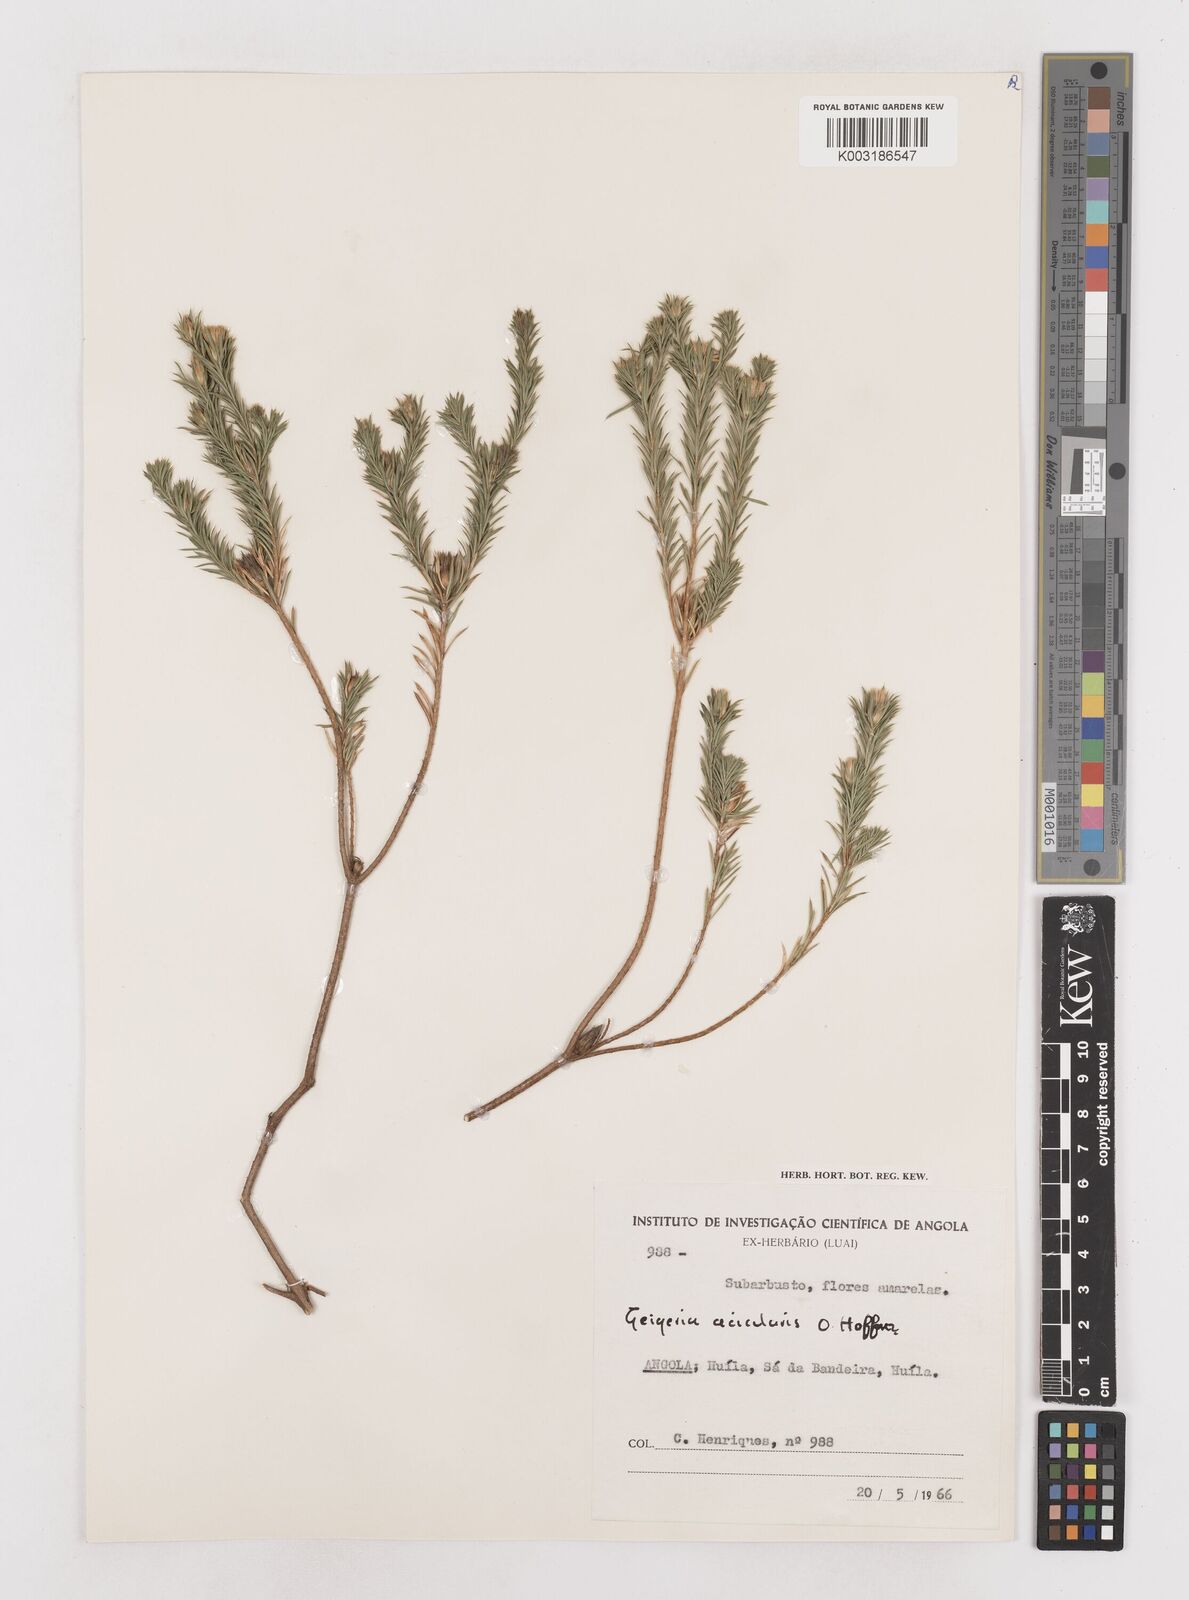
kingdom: Plantae
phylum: Tracheophyta
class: Magnoliopsida
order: Asterales
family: Asteraceae
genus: Geigeria
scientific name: Geigeria acicularis
